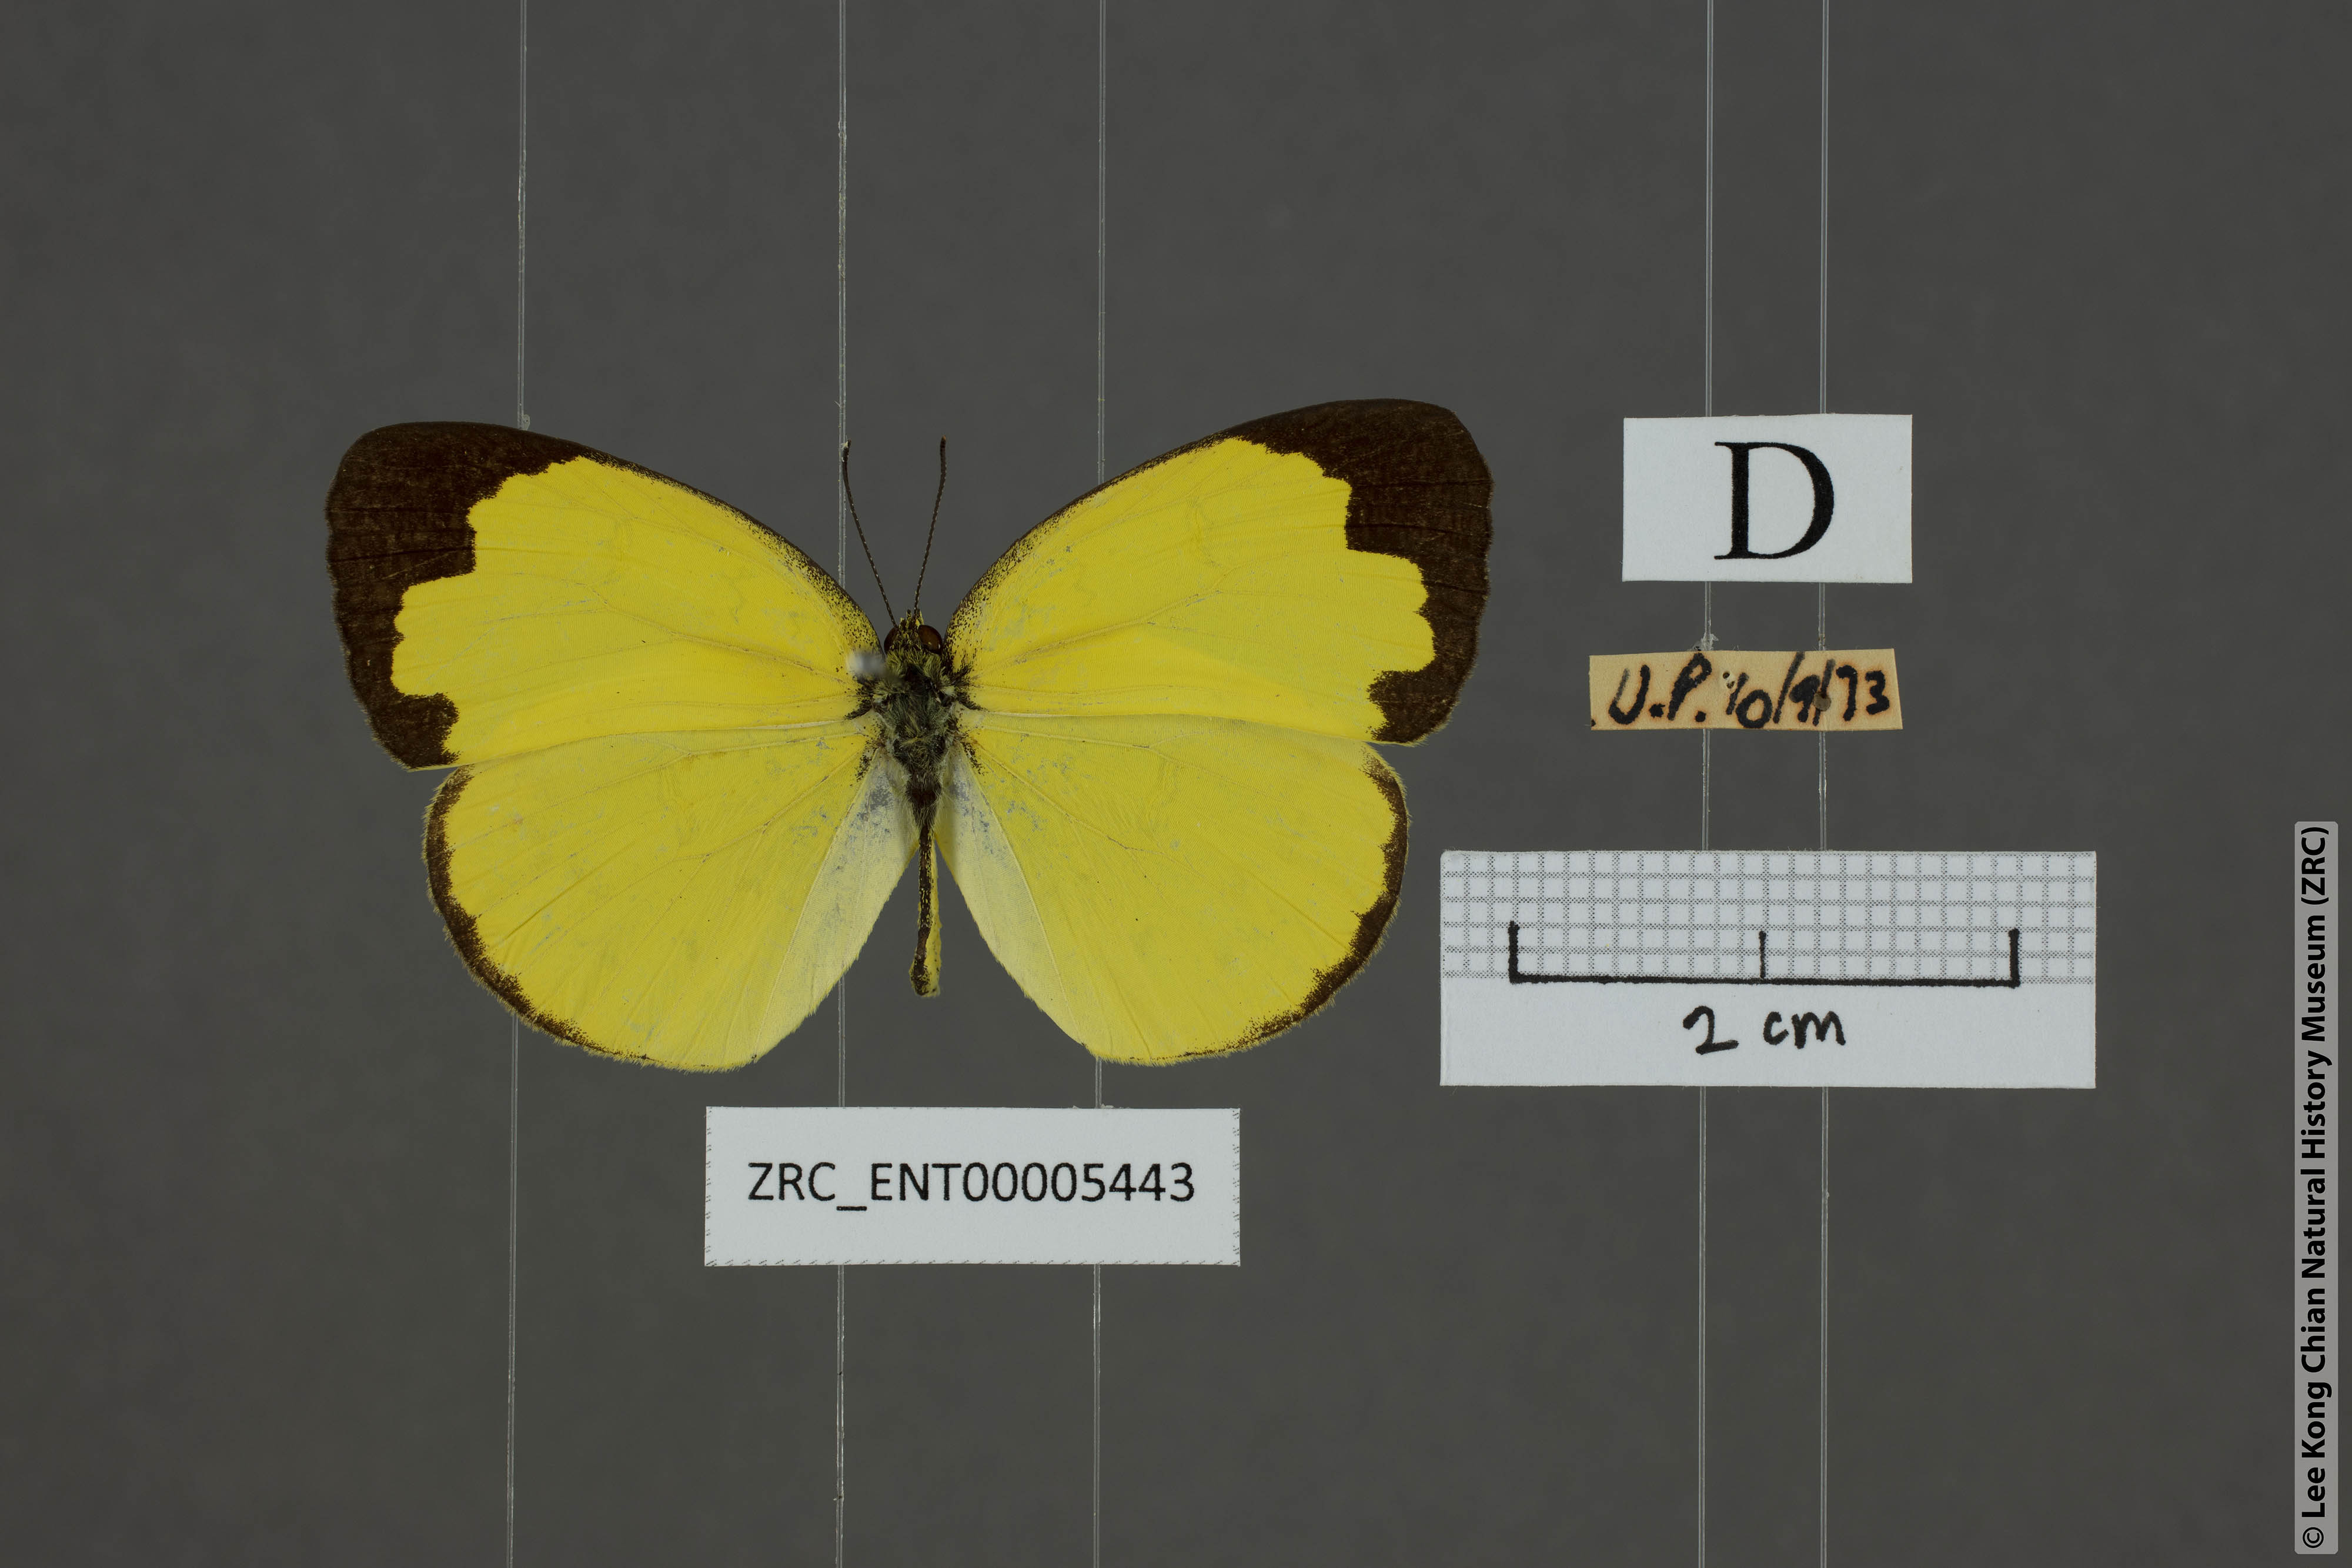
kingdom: Animalia
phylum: Arthropoda
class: Insecta
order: Lepidoptera
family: Pieridae
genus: Eurema
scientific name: Eurema hecabe
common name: Pale grass yellow
